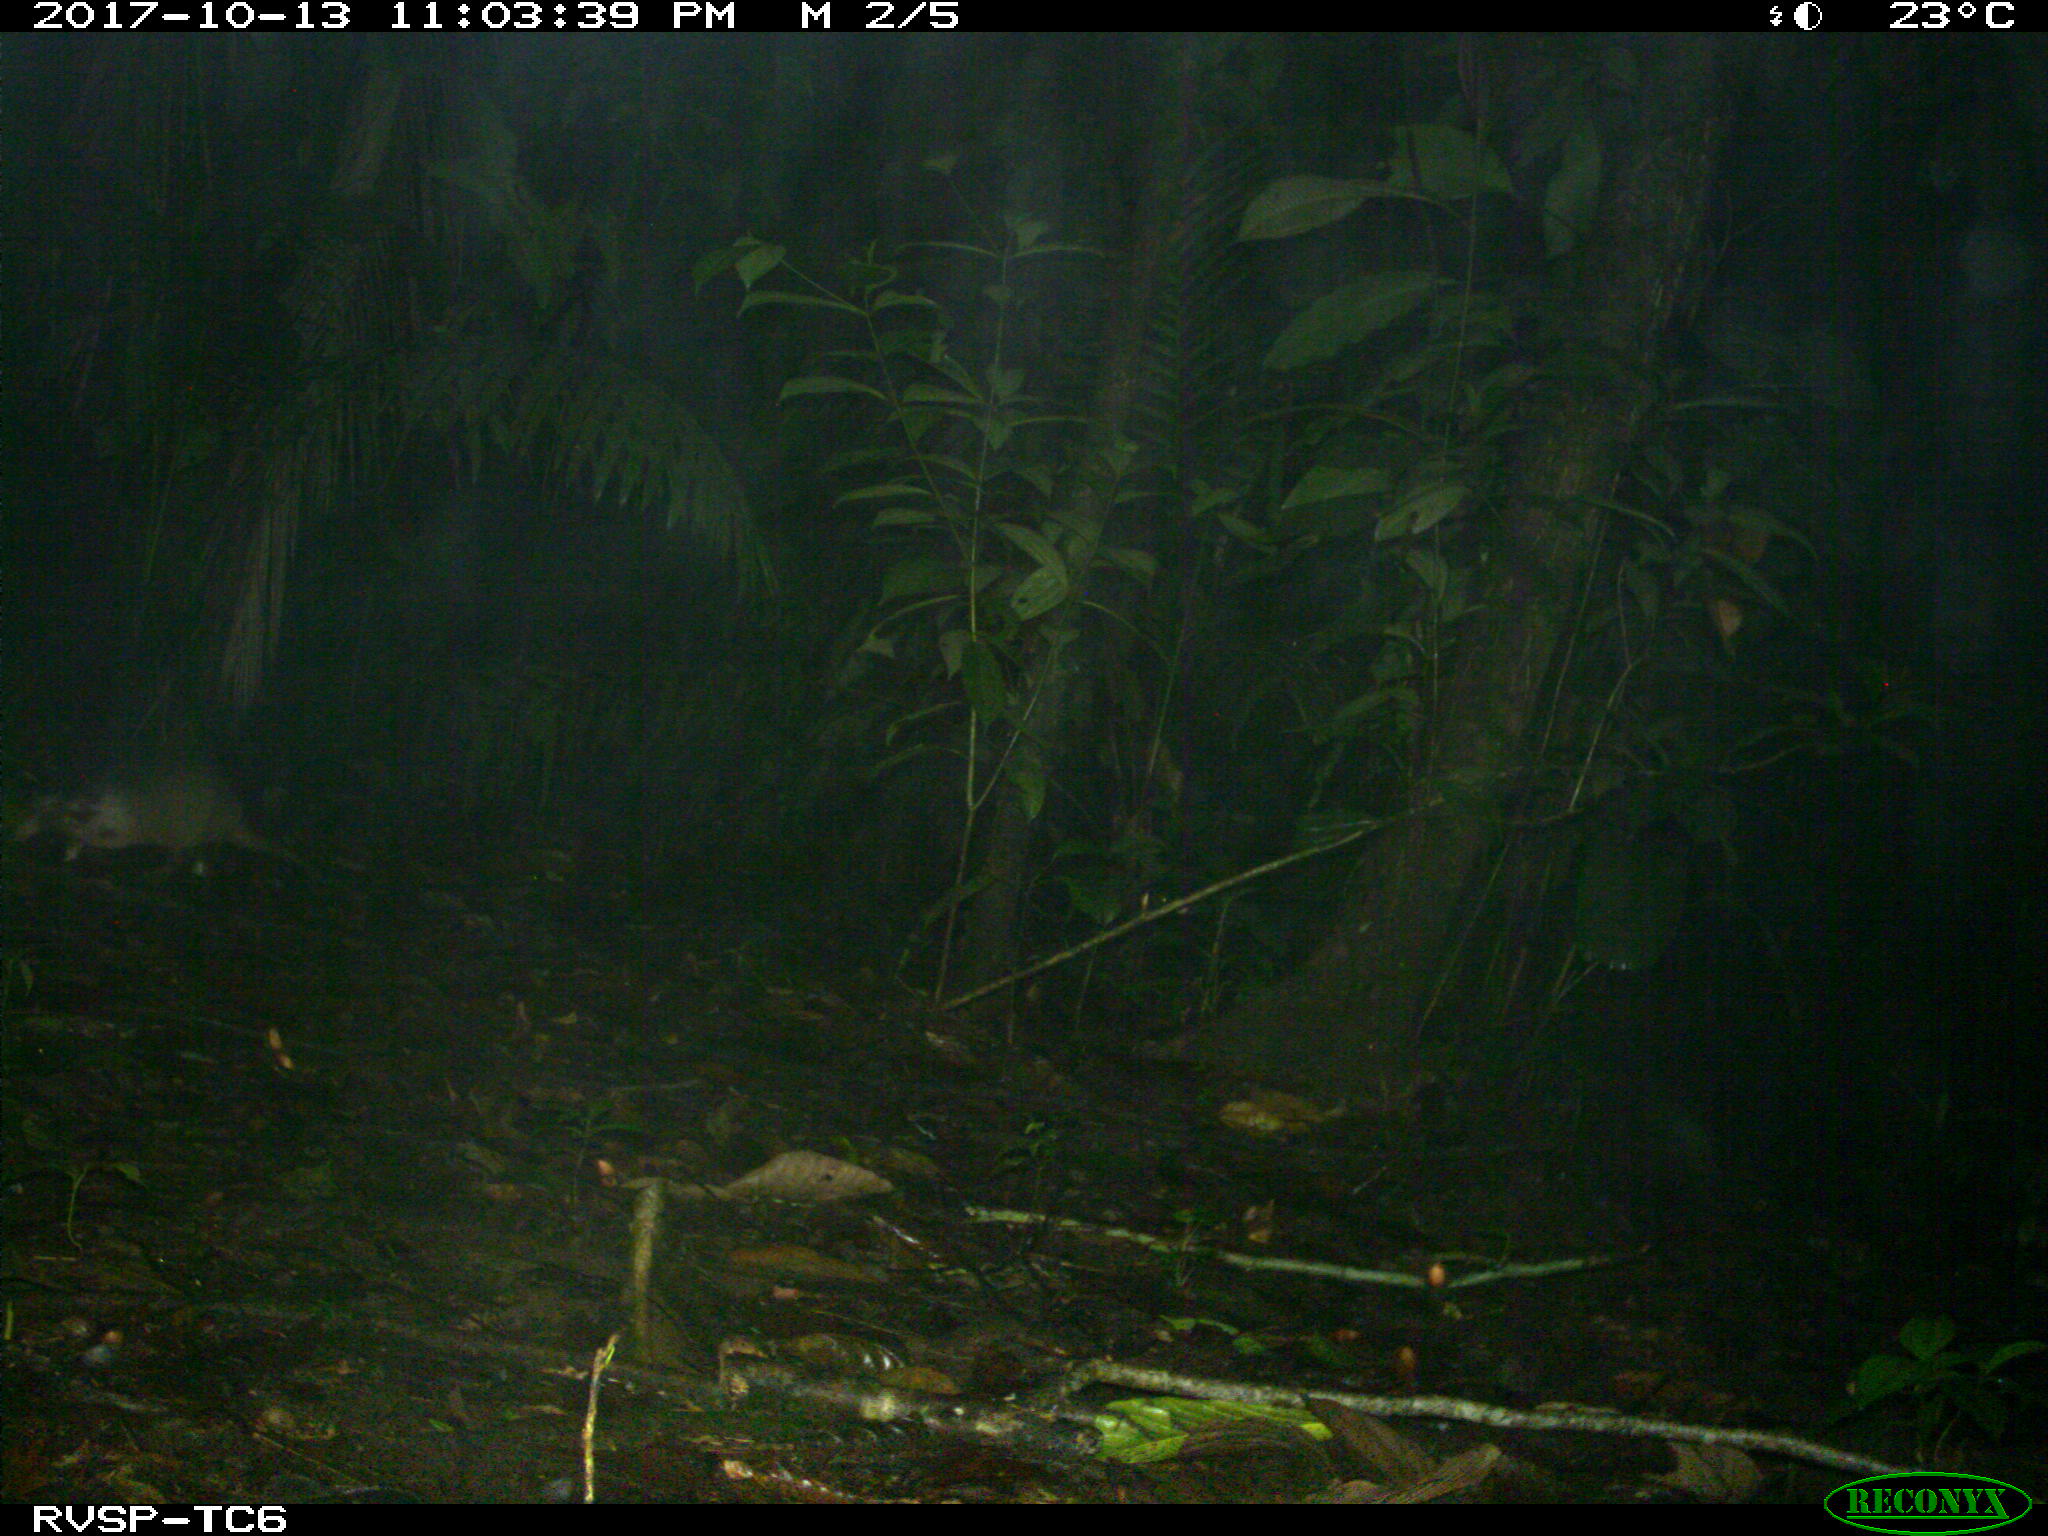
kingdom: Animalia
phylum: Chordata
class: Mammalia
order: Cingulata
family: Dasypodidae
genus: Dasypus
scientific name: Dasypus novemcinctus
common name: Nine-banded armadillo
